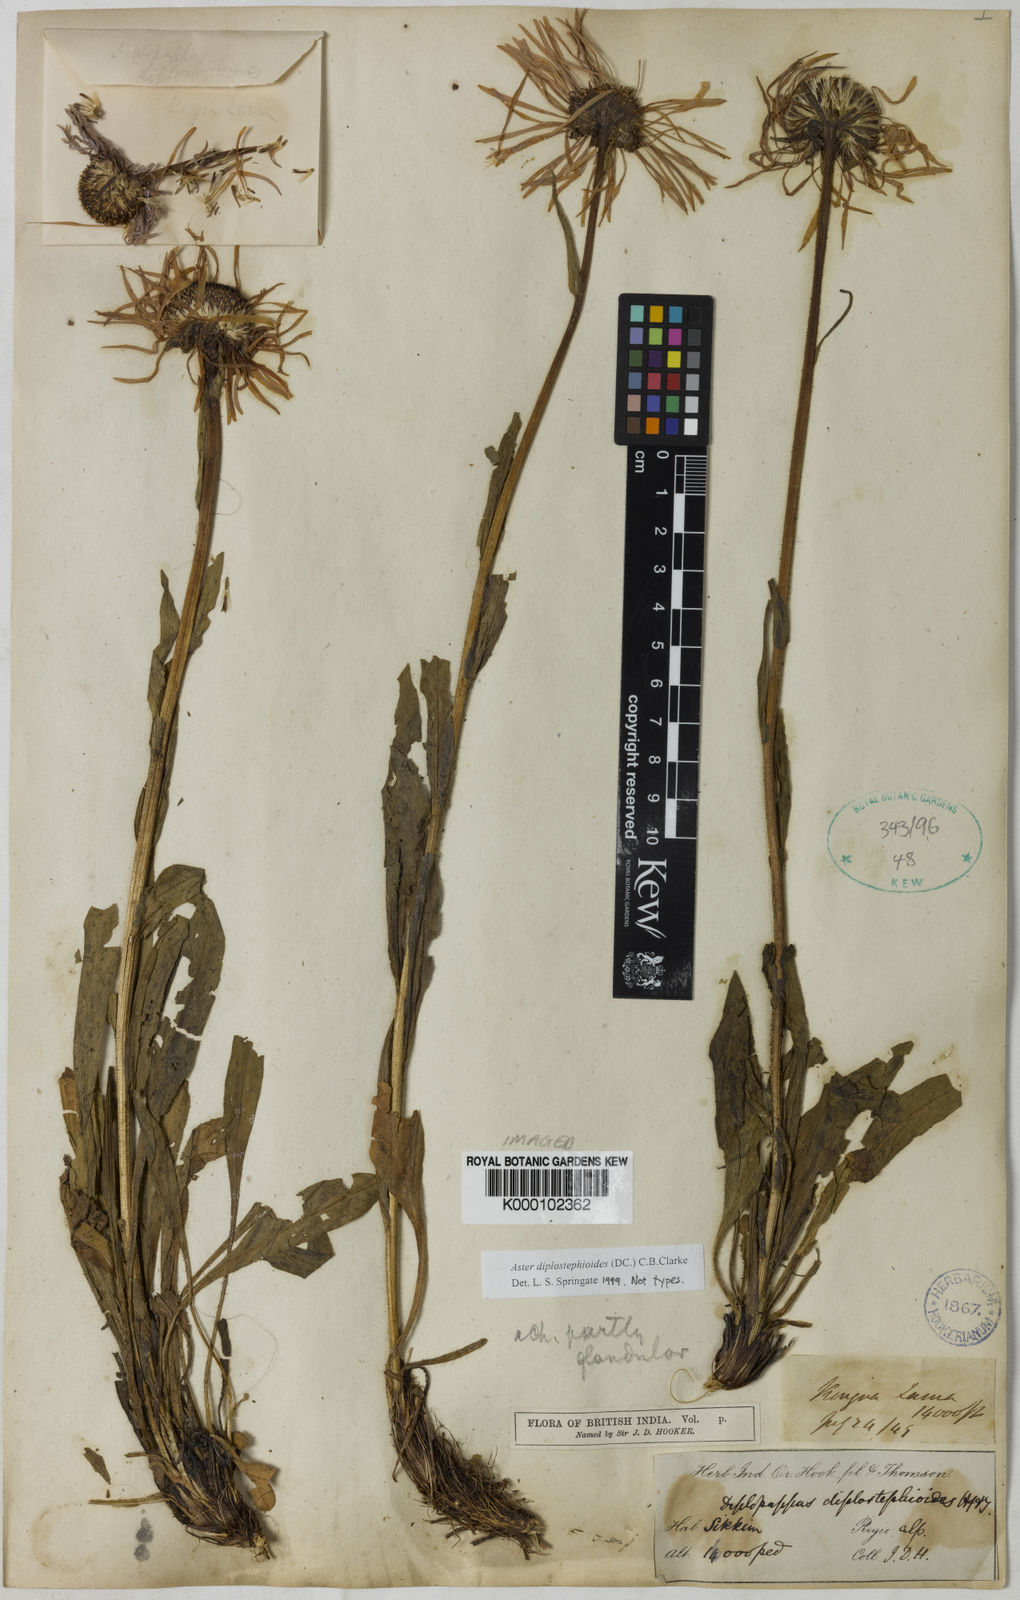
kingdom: Plantae
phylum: Tracheophyta
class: Magnoliopsida
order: Asterales
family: Asteraceae
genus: Tibetiodes
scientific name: Tibetiodes diplostephioides
